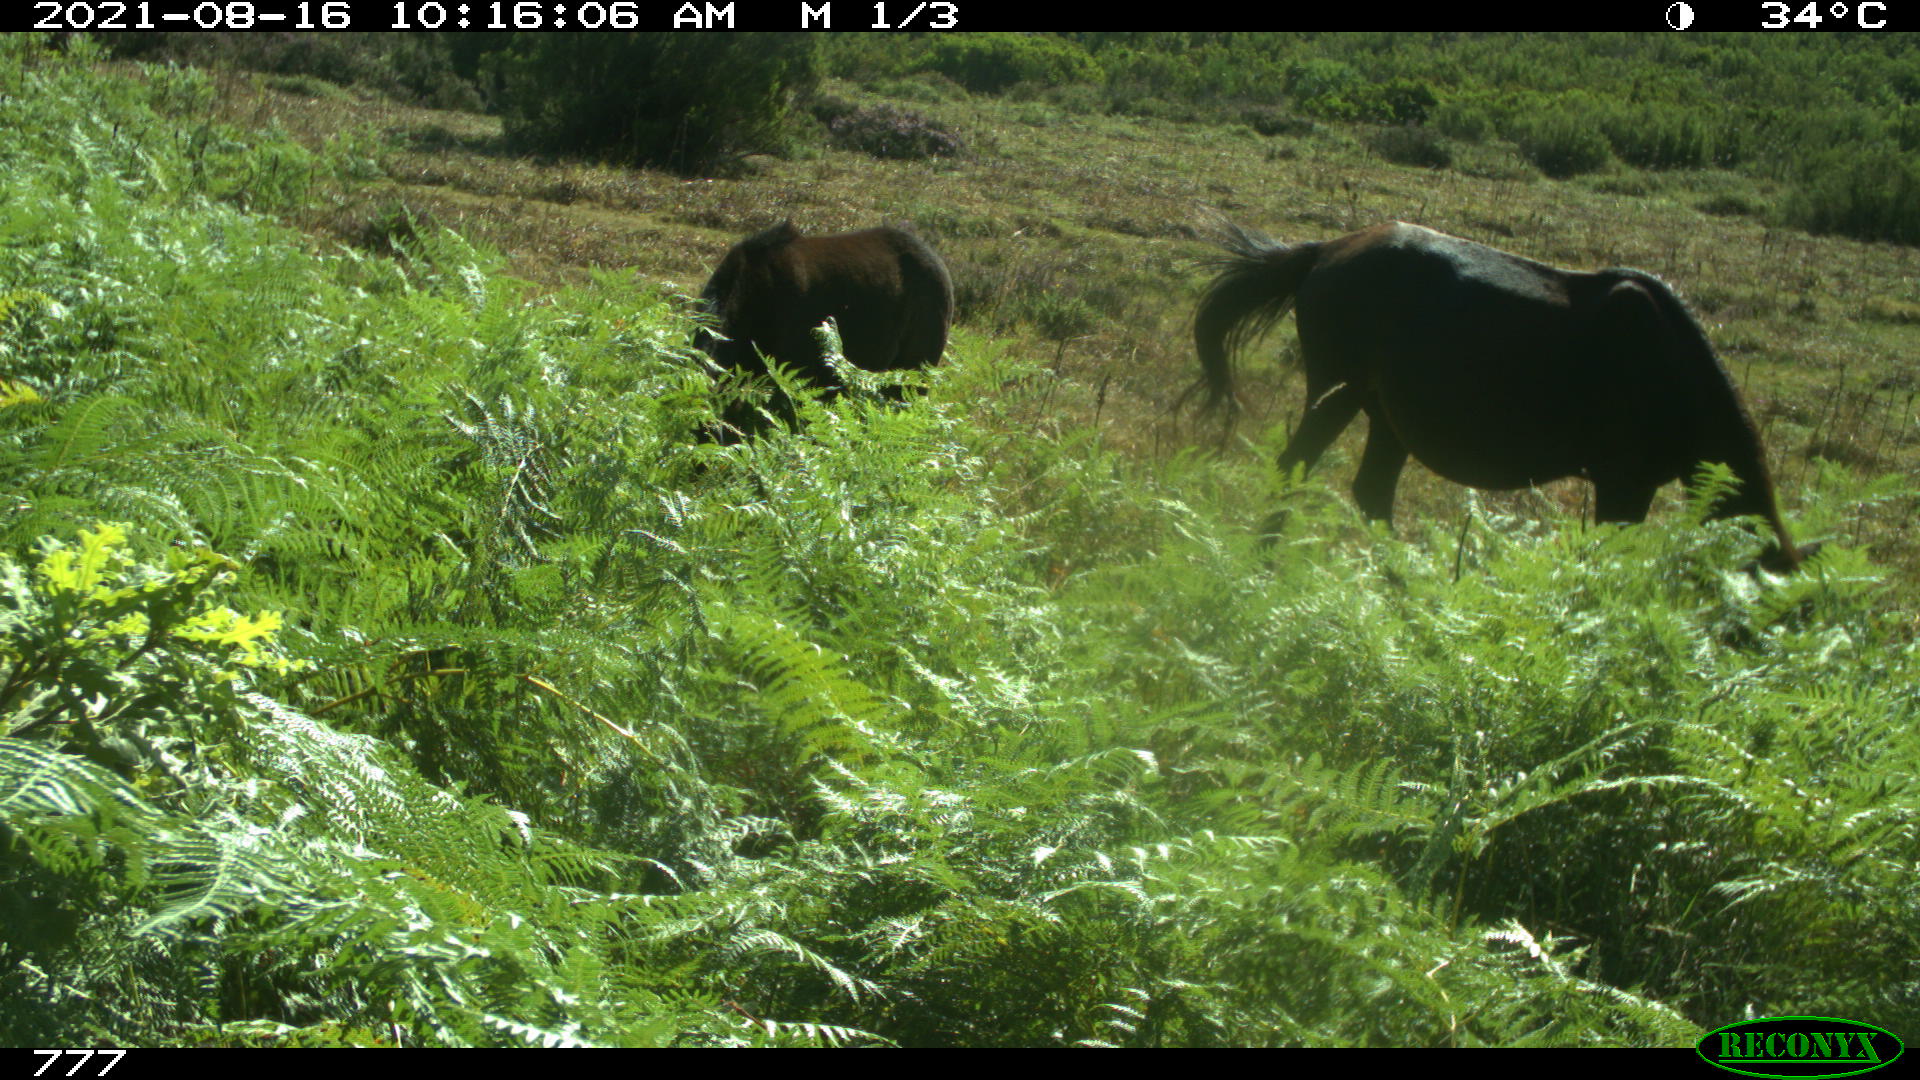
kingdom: Animalia
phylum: Chordata
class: Mammalia
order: Perissodactyla
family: Equidae
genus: Equus
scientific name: Equus caballus
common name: Horse
